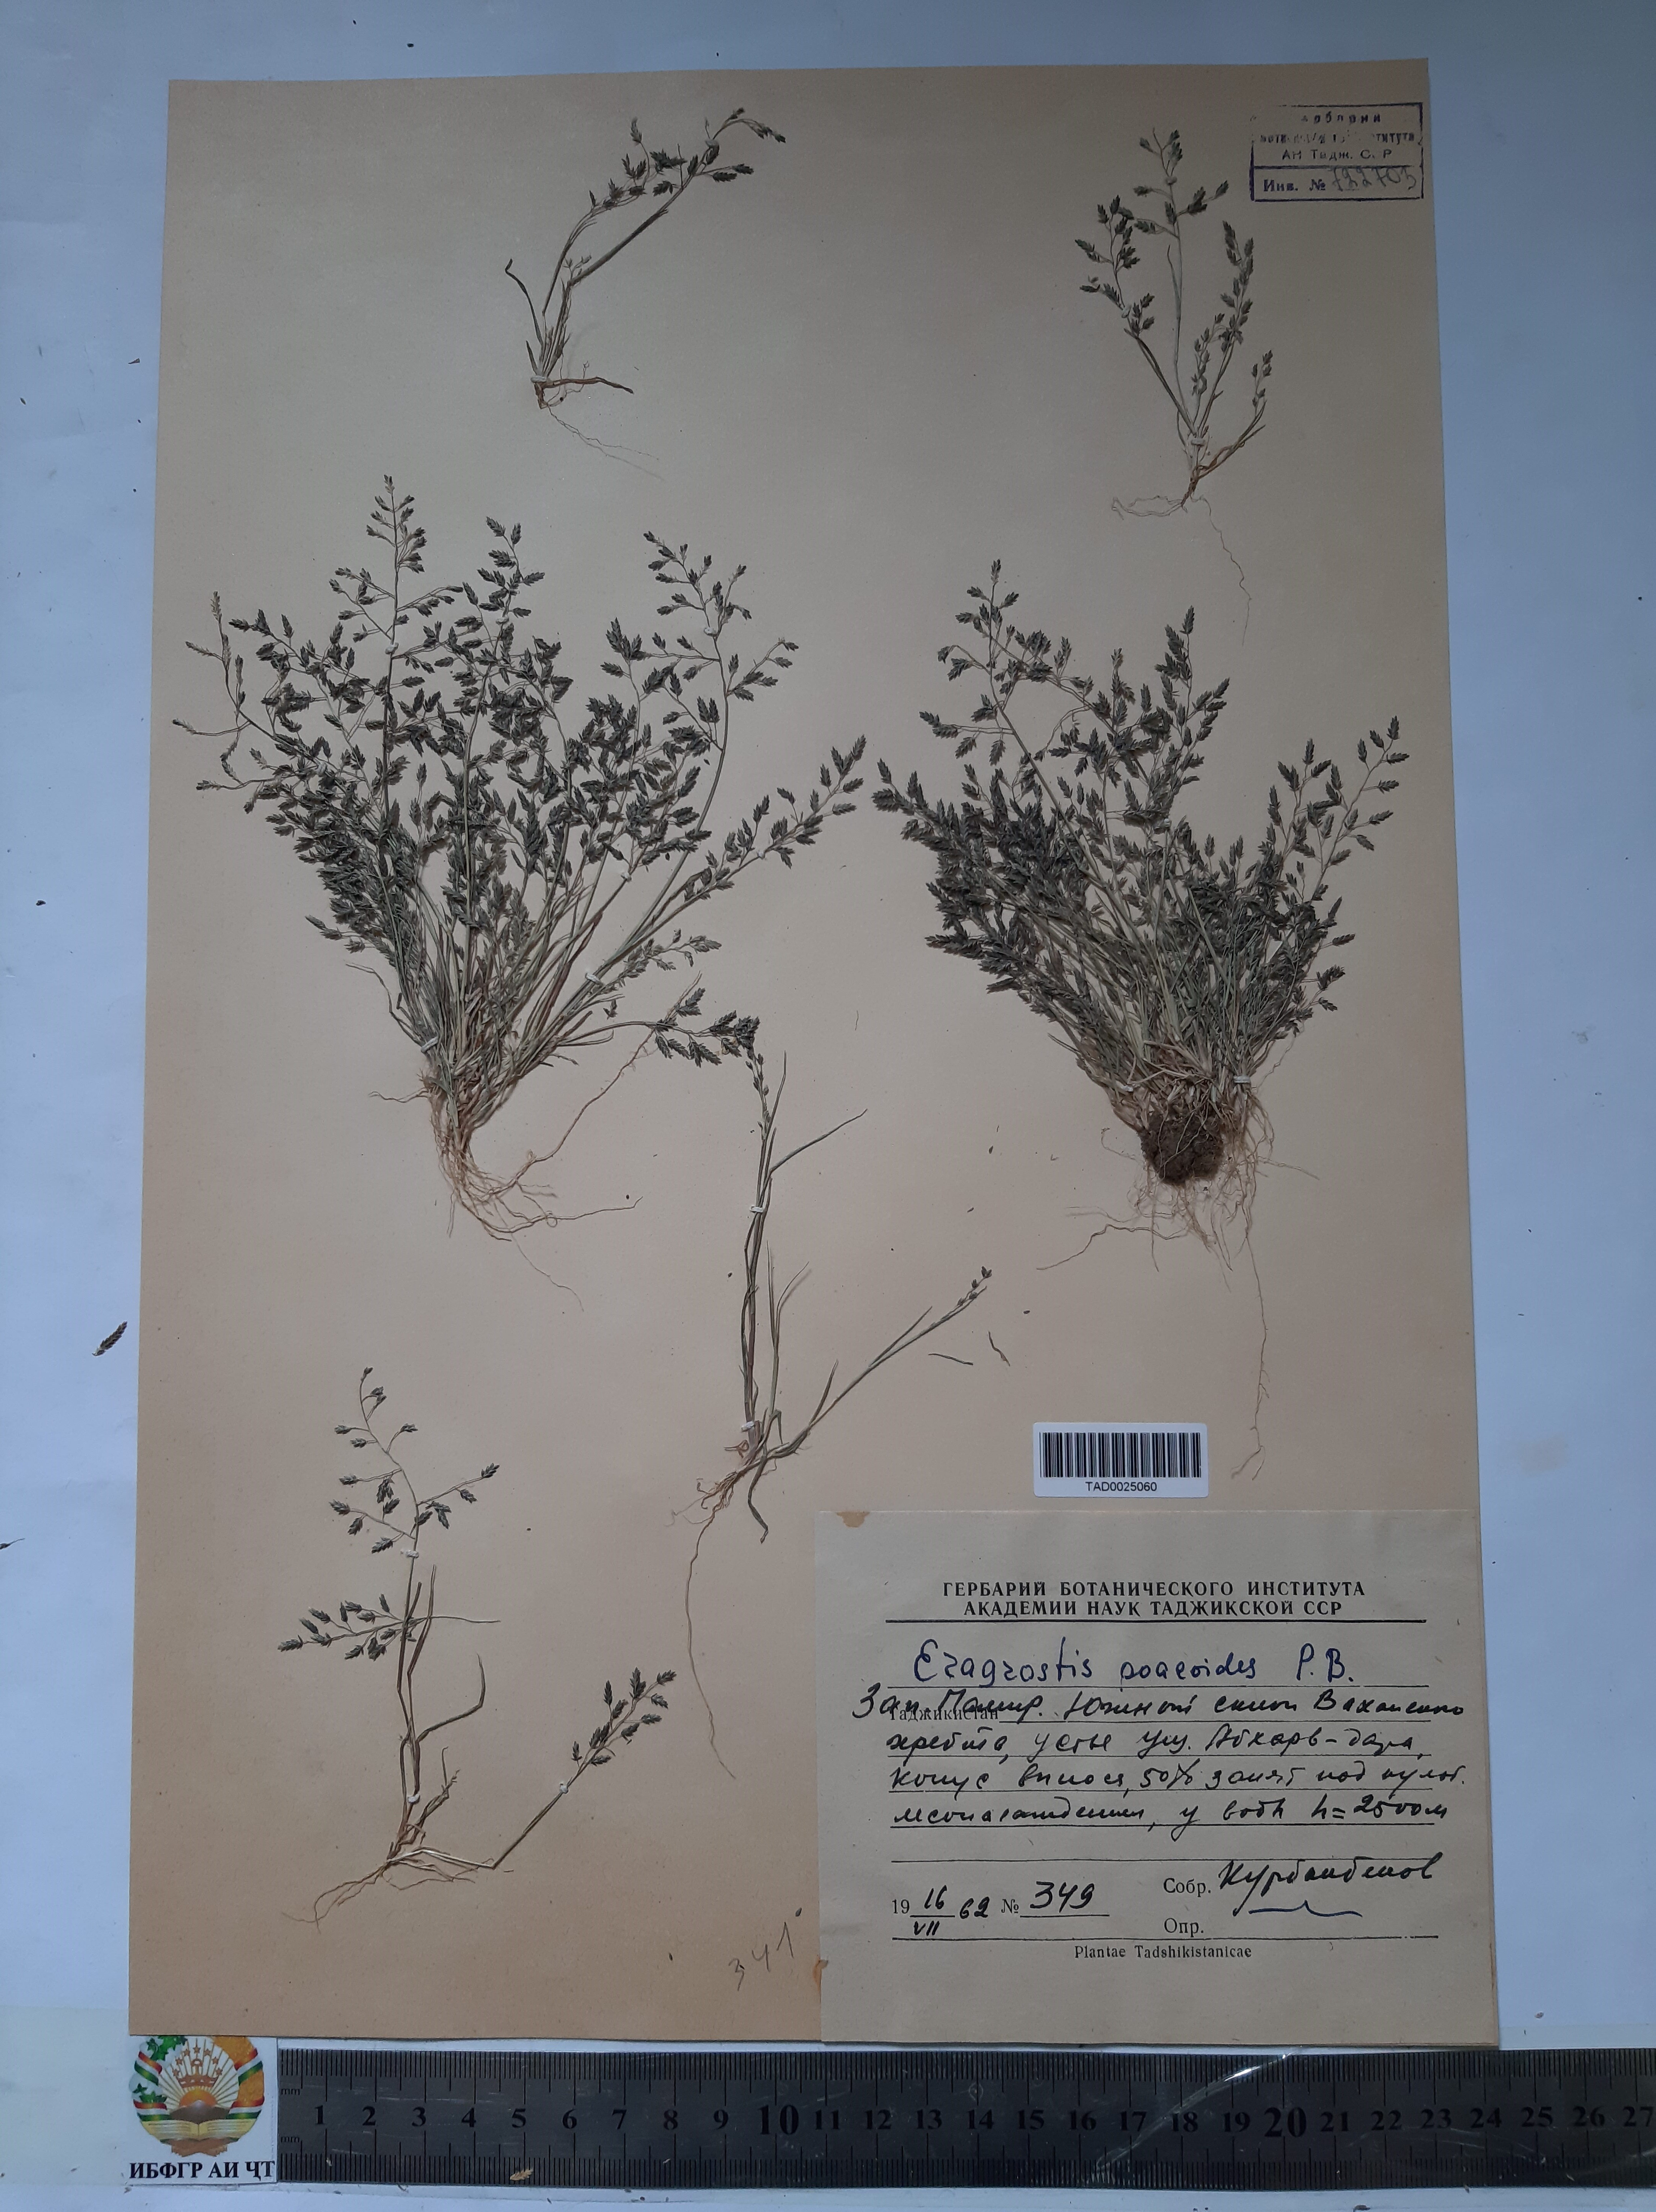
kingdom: Plantae
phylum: Tracheophyta
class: Liliopsida
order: Poales
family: Poaceae
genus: Eragrostis
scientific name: Eragrostis minor
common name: Small love-grass
